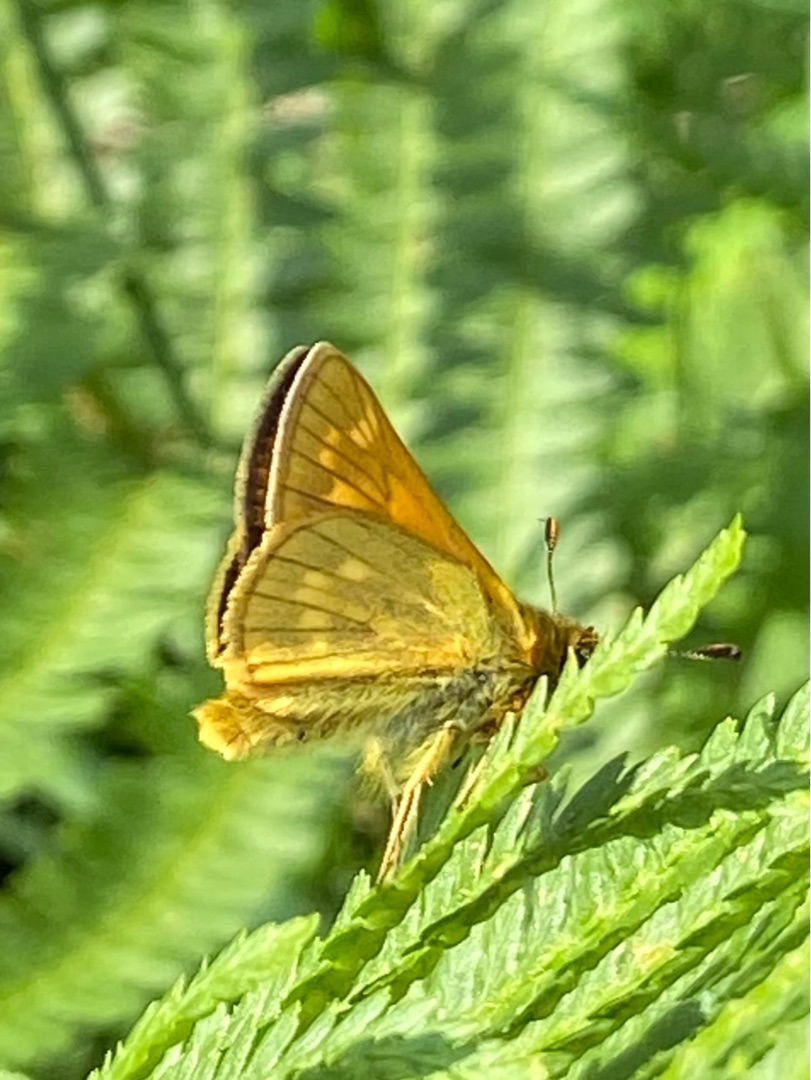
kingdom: Animalia
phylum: Arthropoda
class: Insecta
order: Lepidoptera
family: Hesperiidae
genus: Ochlodes
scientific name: Ochlodes venata
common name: Stor bredpande
